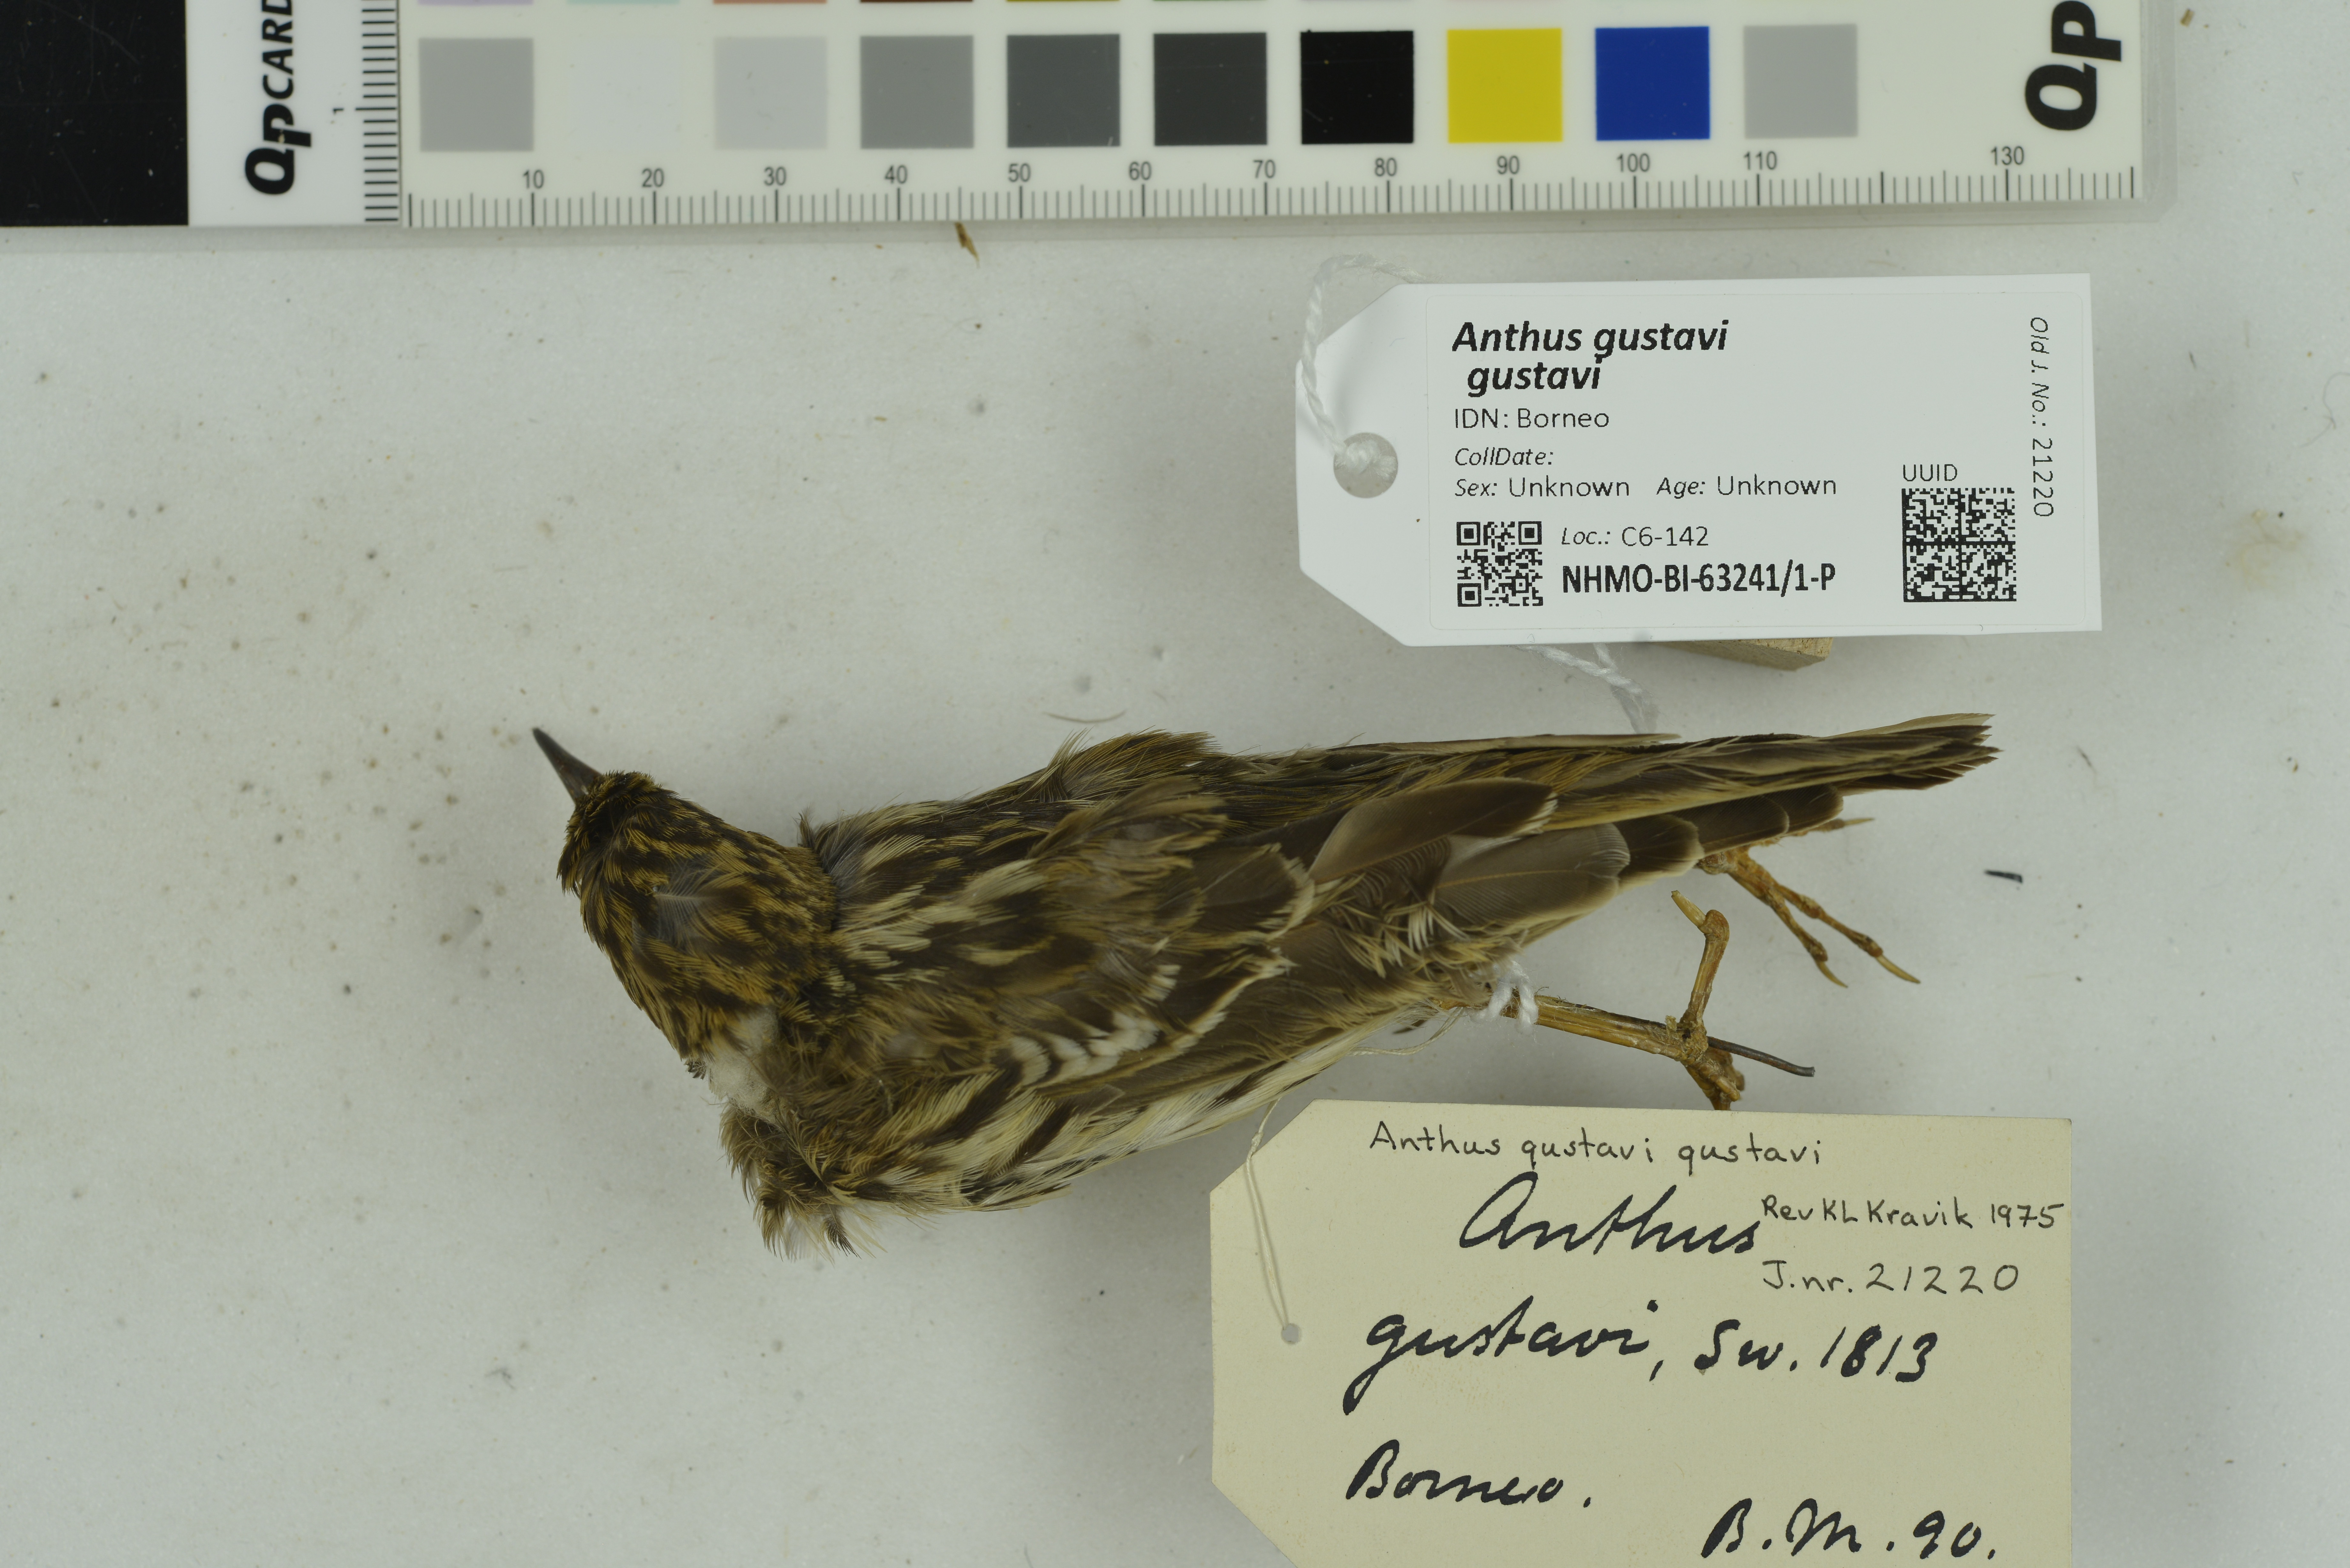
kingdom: Animalia
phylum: Chordata
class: Aves
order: Passeriformes
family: Motacillidae
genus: Anthus
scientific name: Anthus gustavi
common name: Pechora pipit
